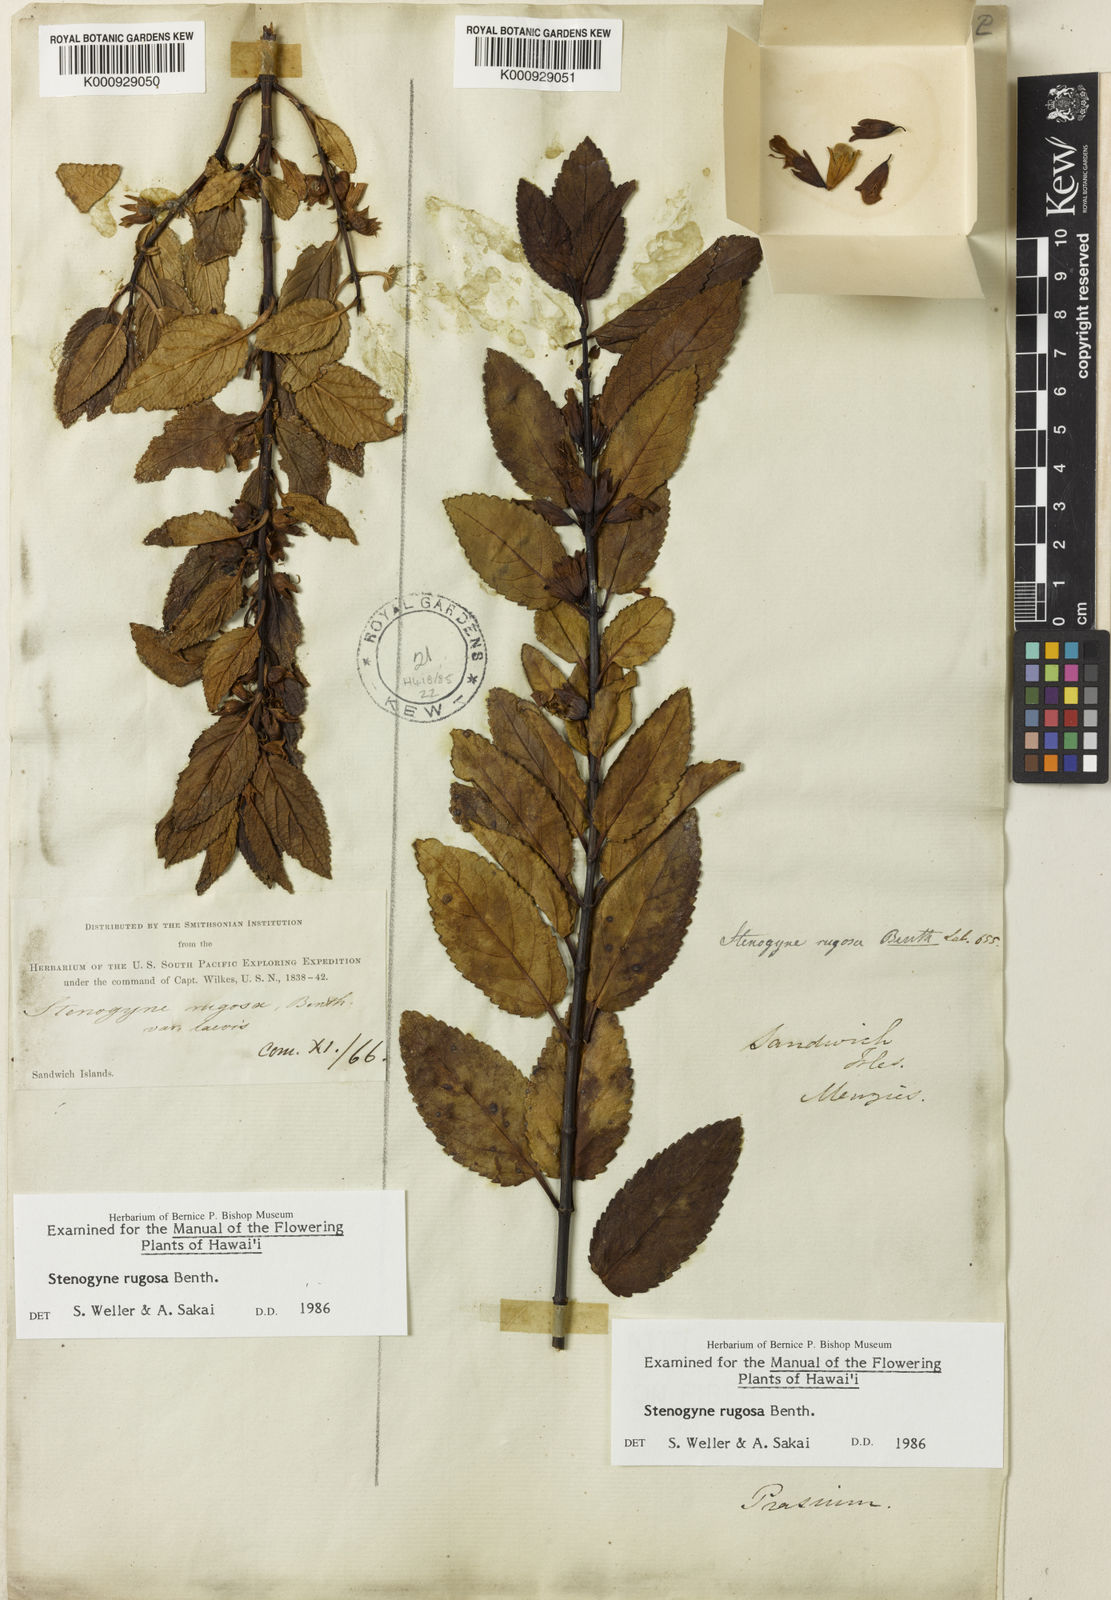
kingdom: Plantae
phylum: Tracheophyta
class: Magnoliopsida
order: Lamiales
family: Lamiaceae
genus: Stenogyne
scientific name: Stenogyne rugosa
